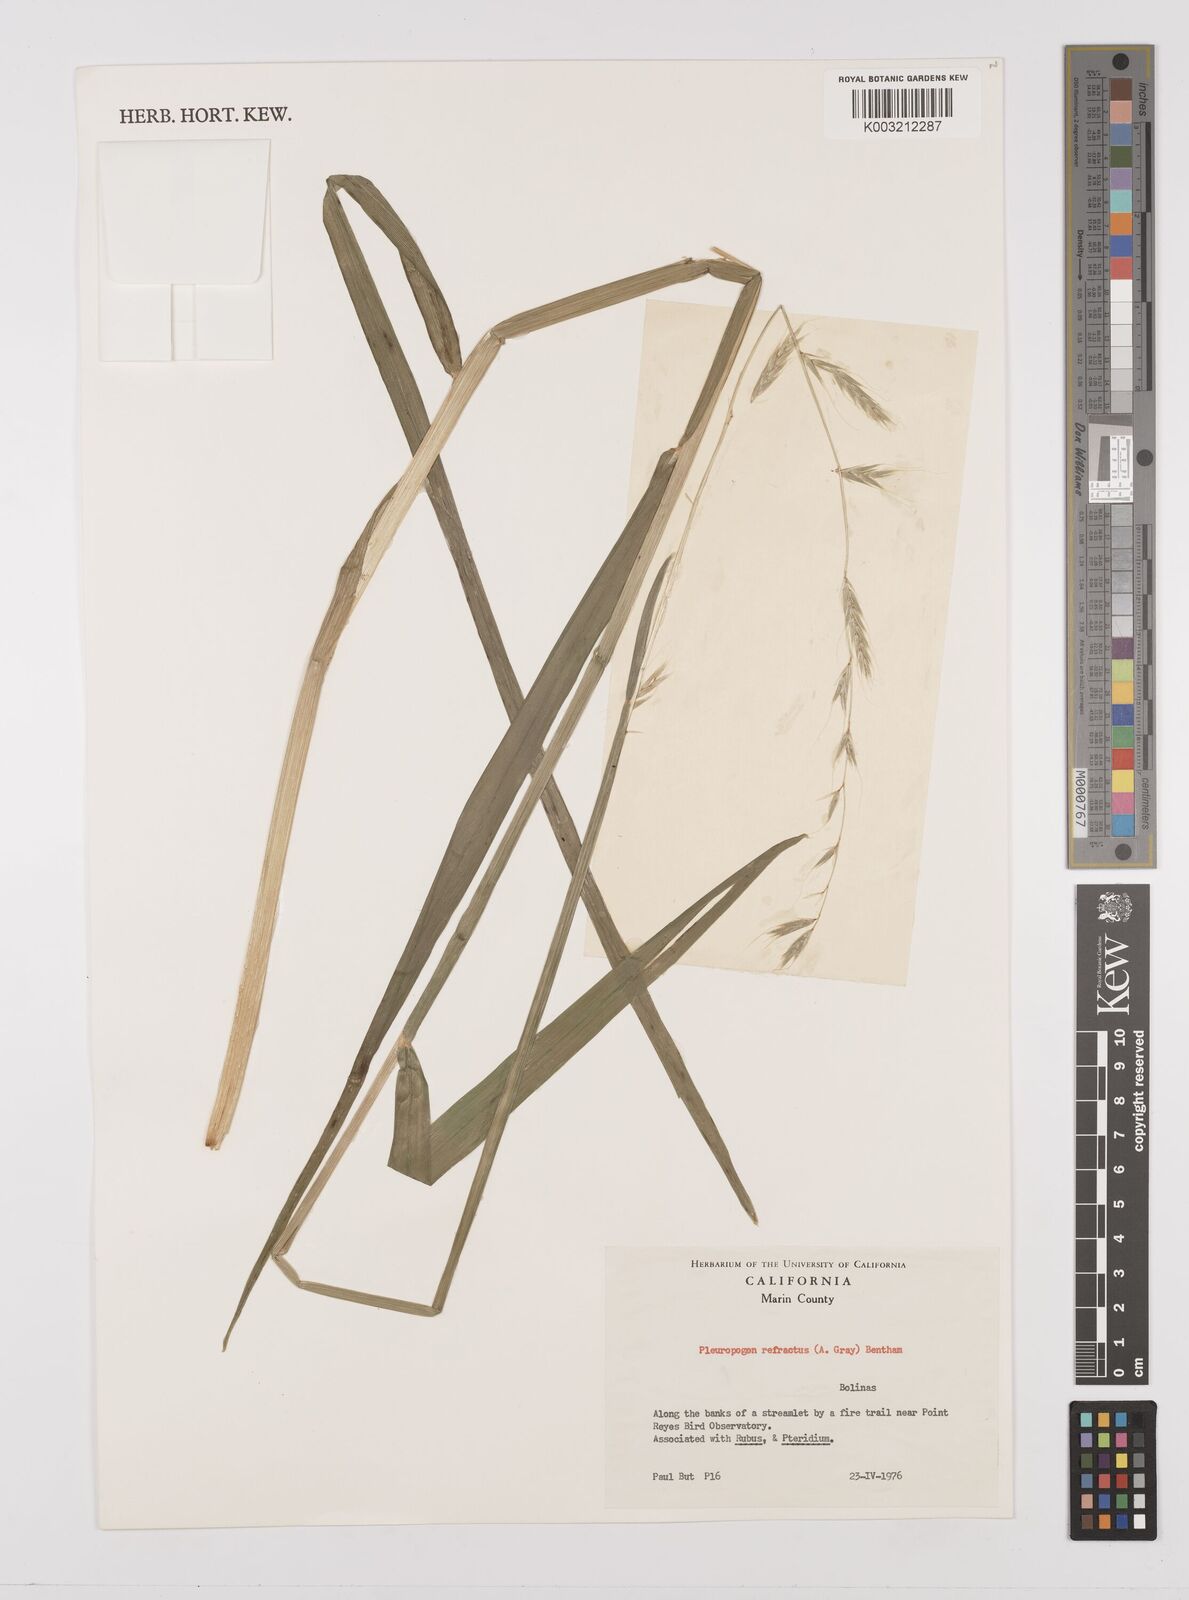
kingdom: Plantae
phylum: Tracheophyta
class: Liliopsida
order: Poales
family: Poaceae
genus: Pleuropogon
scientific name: Pleuropogon refractus
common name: Nodding false semaphoregrass
